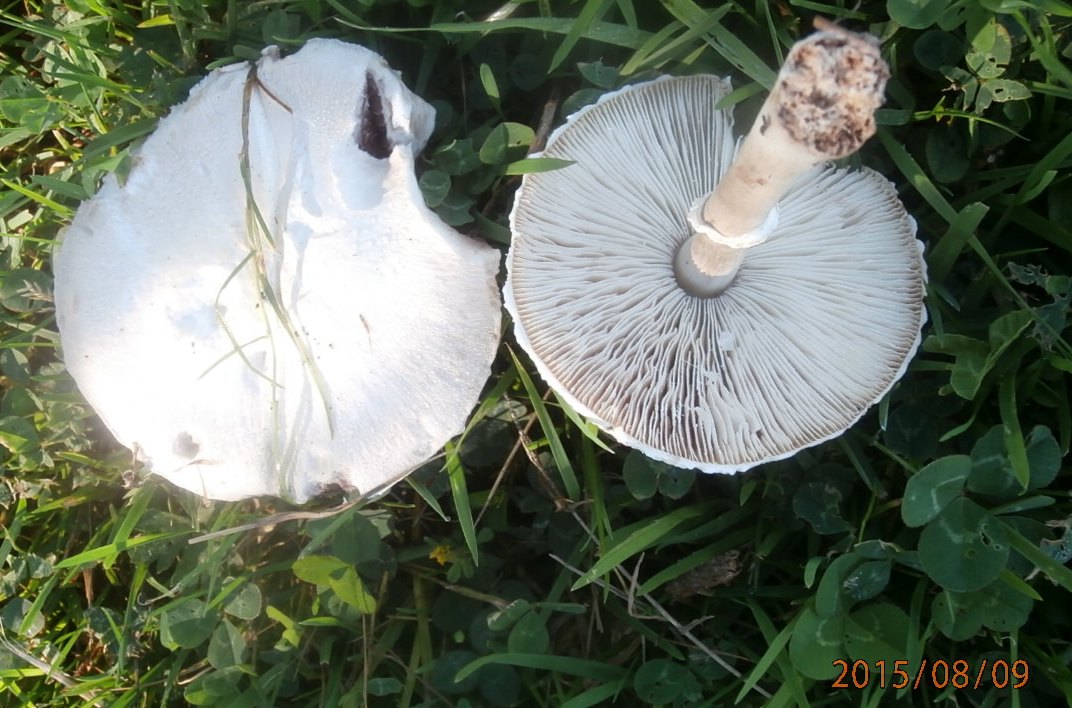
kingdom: Fungi
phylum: Basidiomycota
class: Agaricomycetes
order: Agaricales
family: Agaricaceae
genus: Leucoagaricus
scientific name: Leucoagaricus leucothites
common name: rosabladet silkehat
